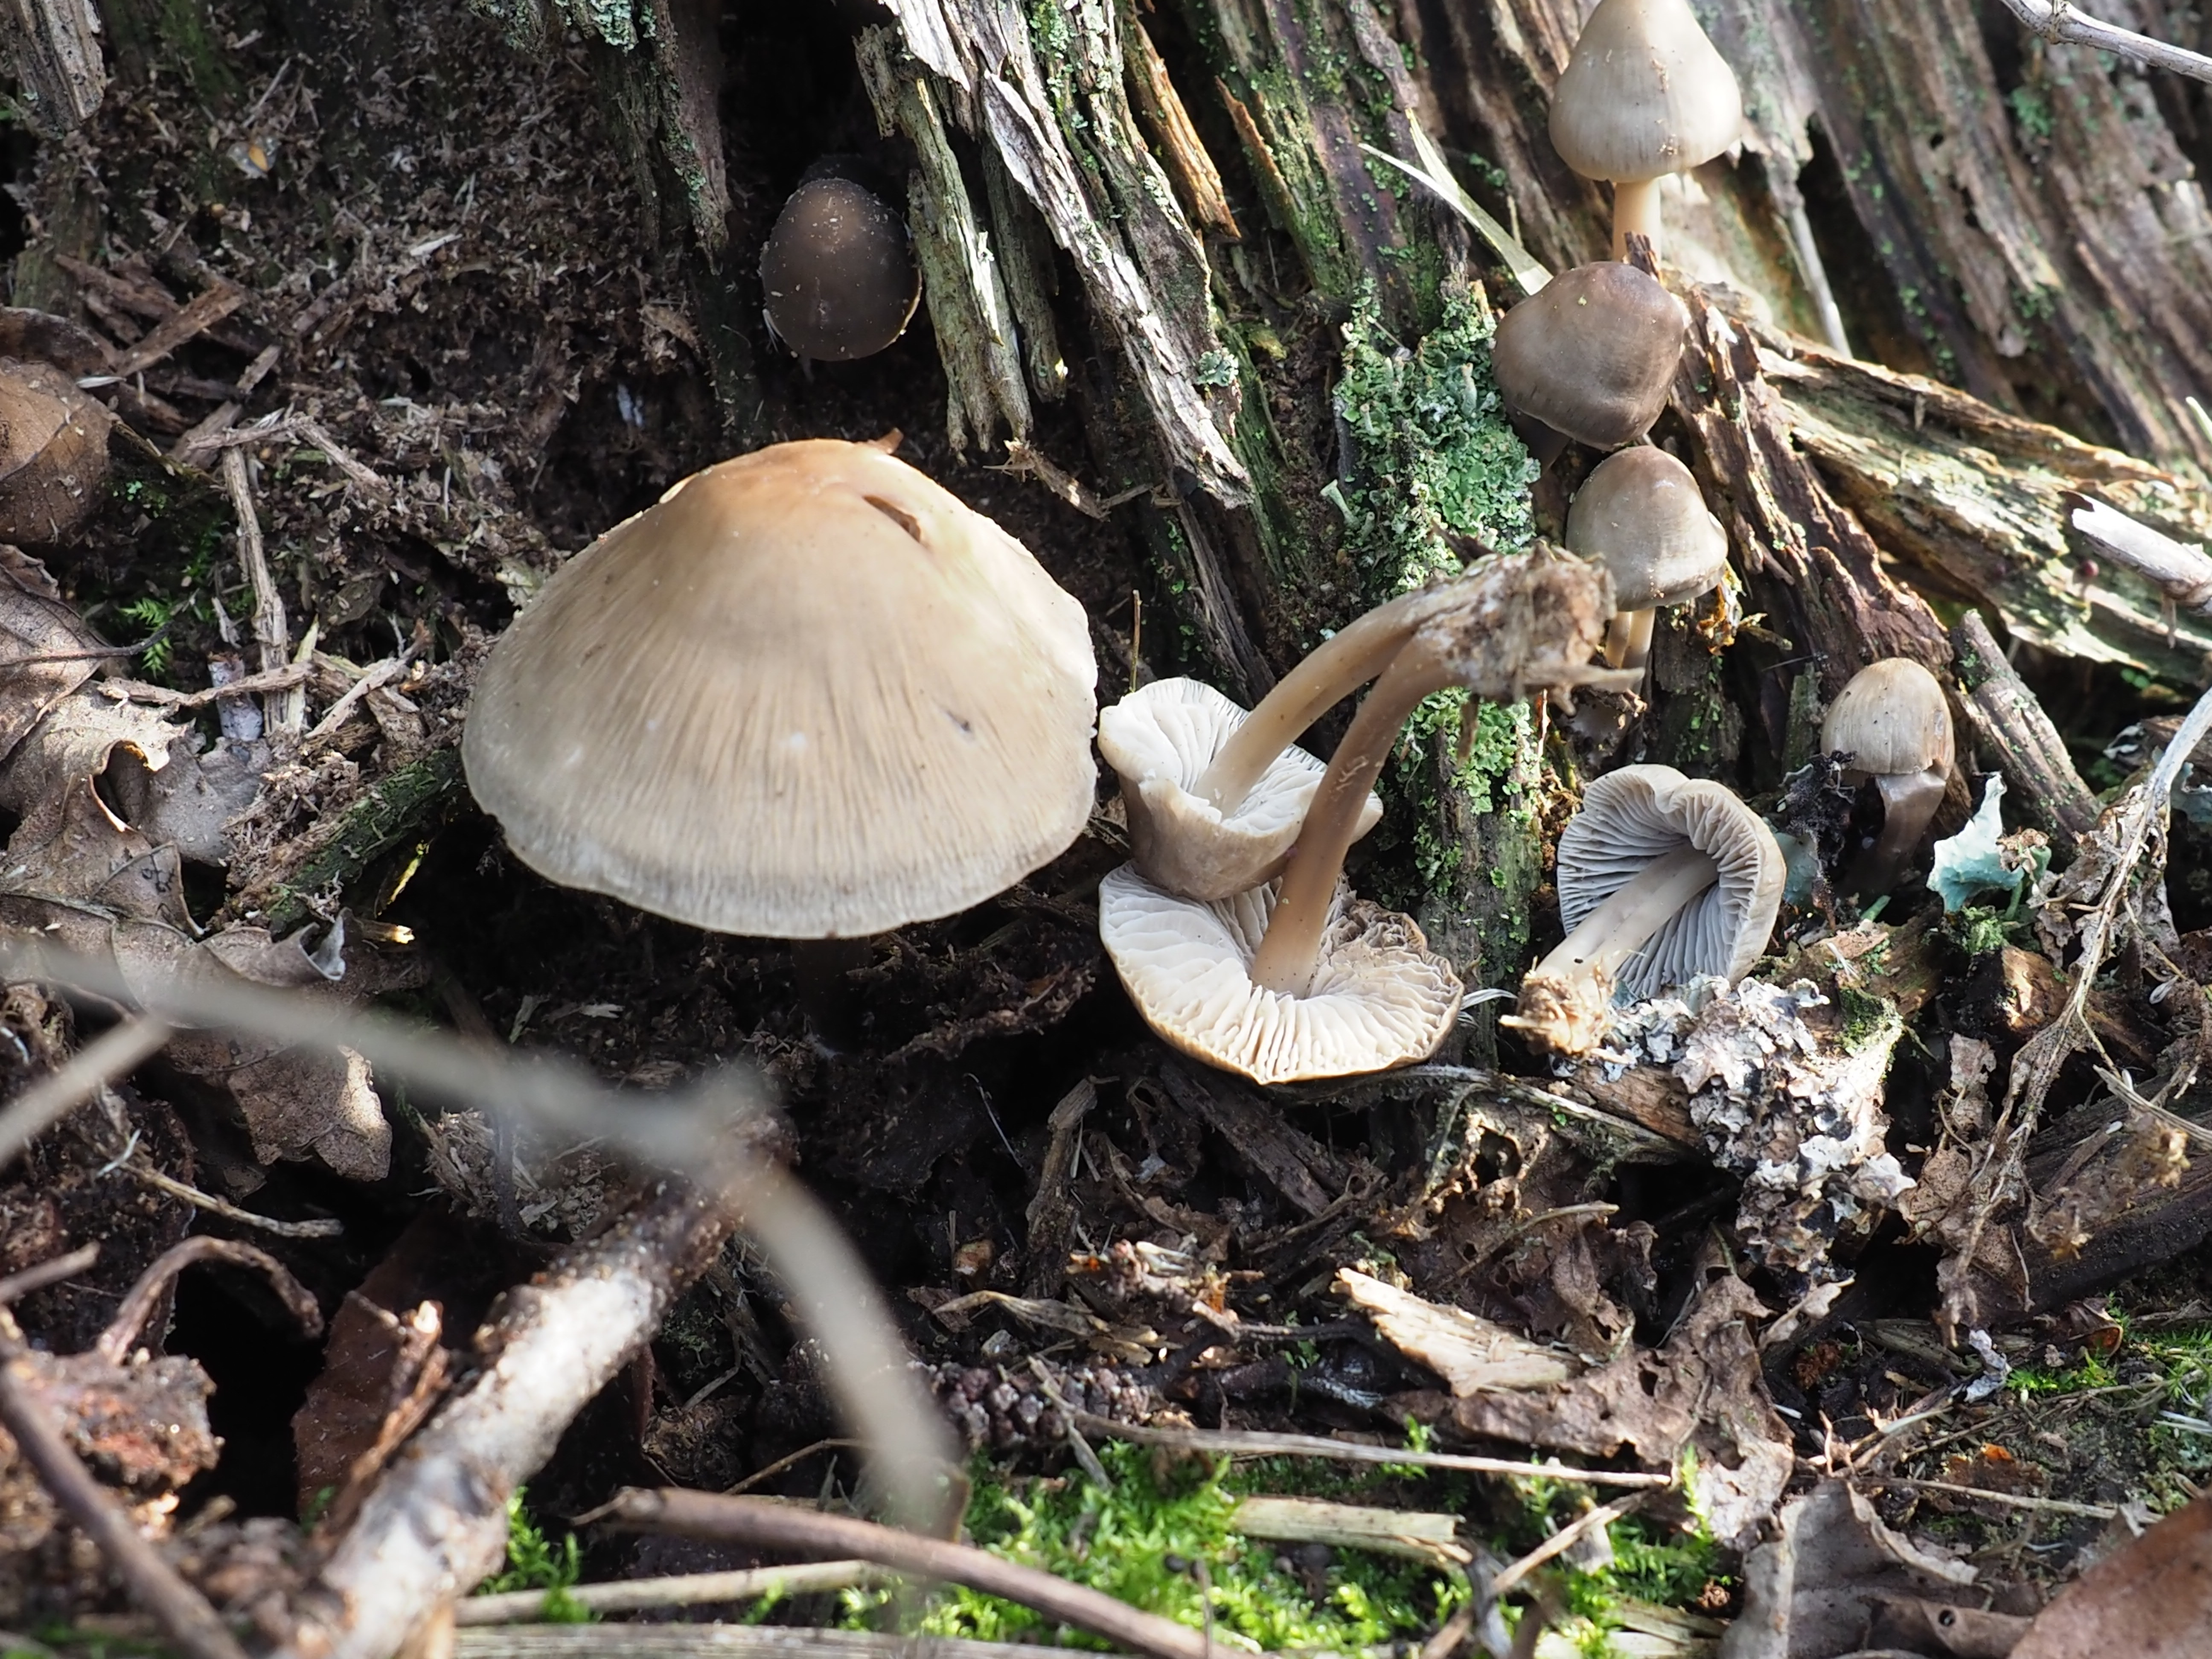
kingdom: Fungi
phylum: Basidiomycota
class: Agaricomycetes
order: Agaricales
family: Mycenaceae
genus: Mycena
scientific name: Mycena galericulata
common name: Bonnet mycena
